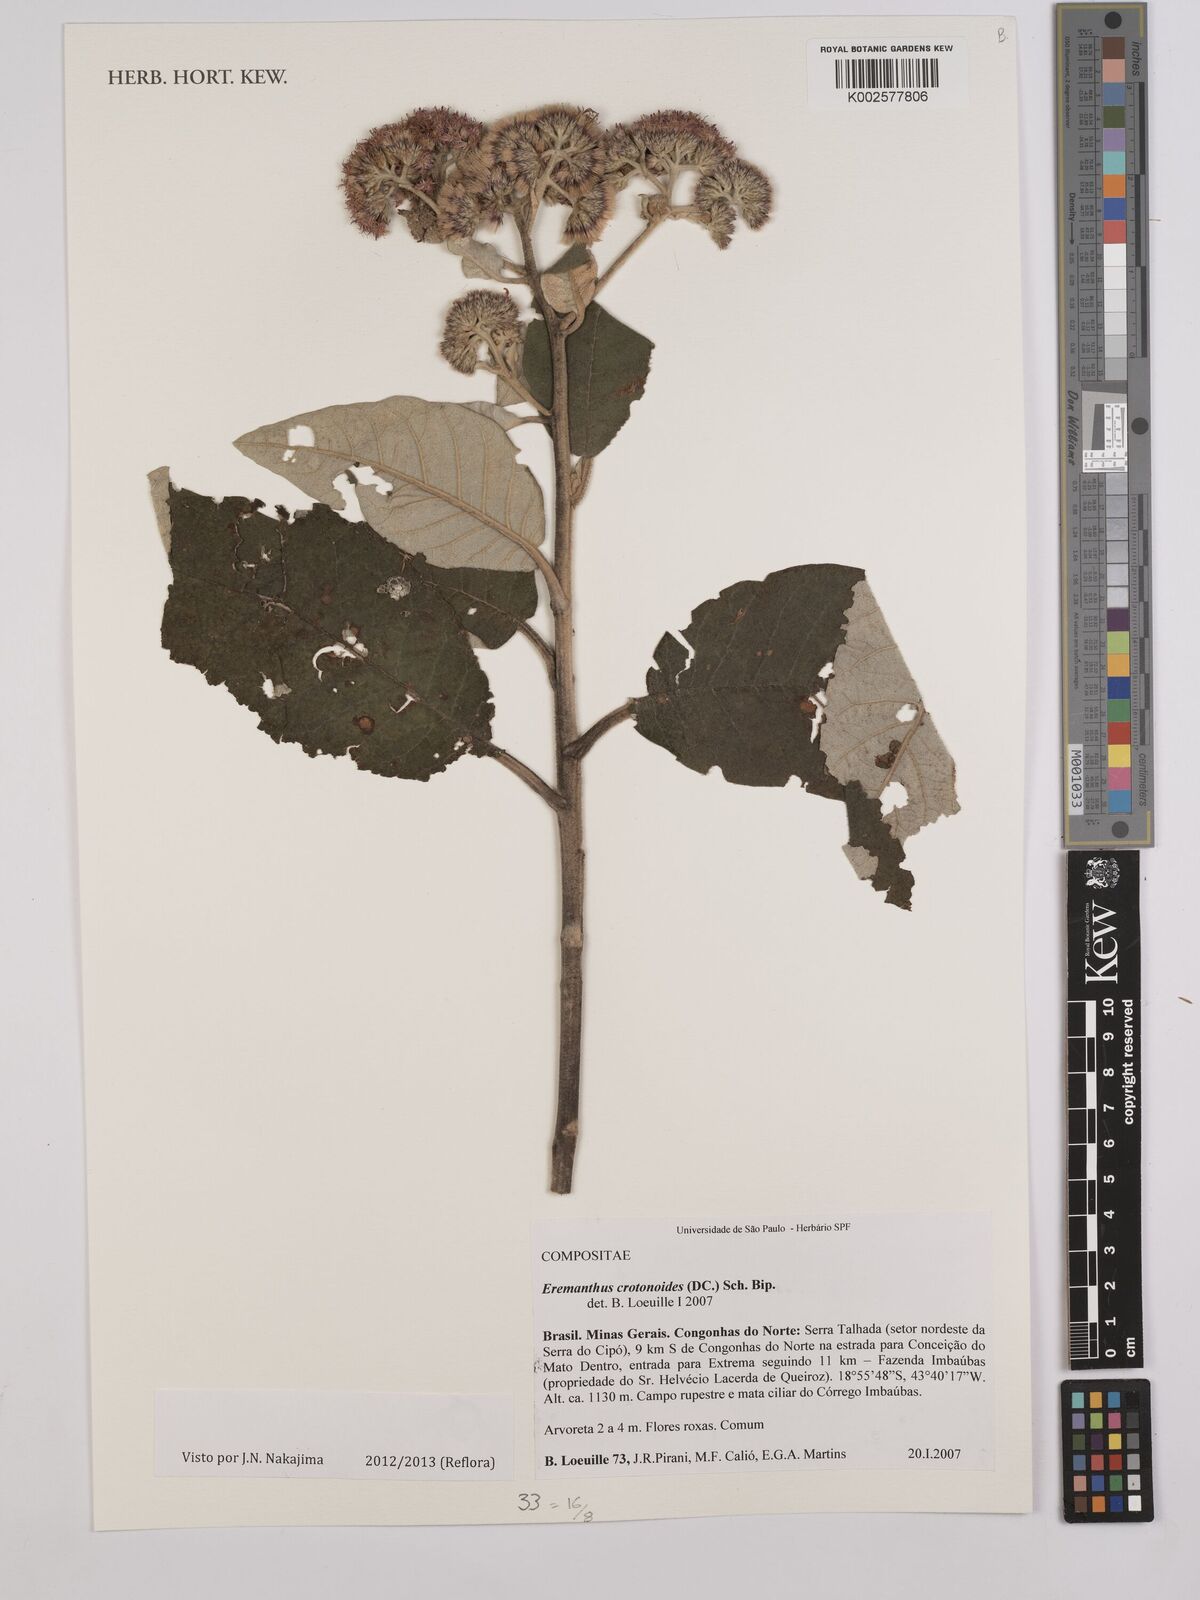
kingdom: Plantae
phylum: Tracheophyta
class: Magnoliopsida
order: Asterales
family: Asteraceae
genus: Eremanthus
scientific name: Eremanthus crotonoides
